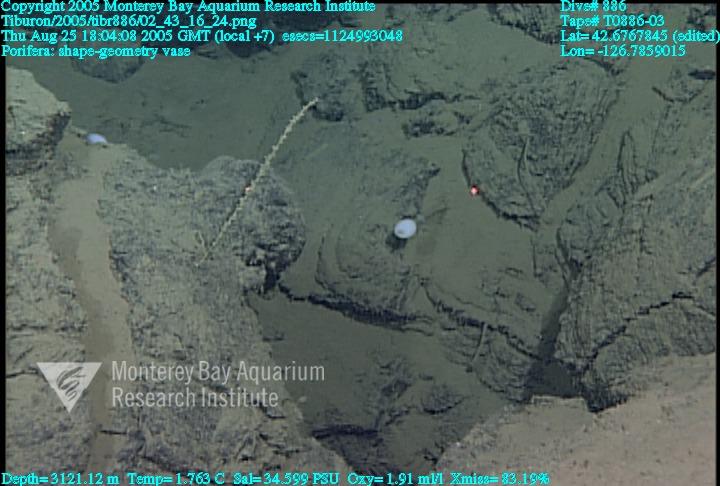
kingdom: Animalia
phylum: Porifera
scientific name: Porifera
